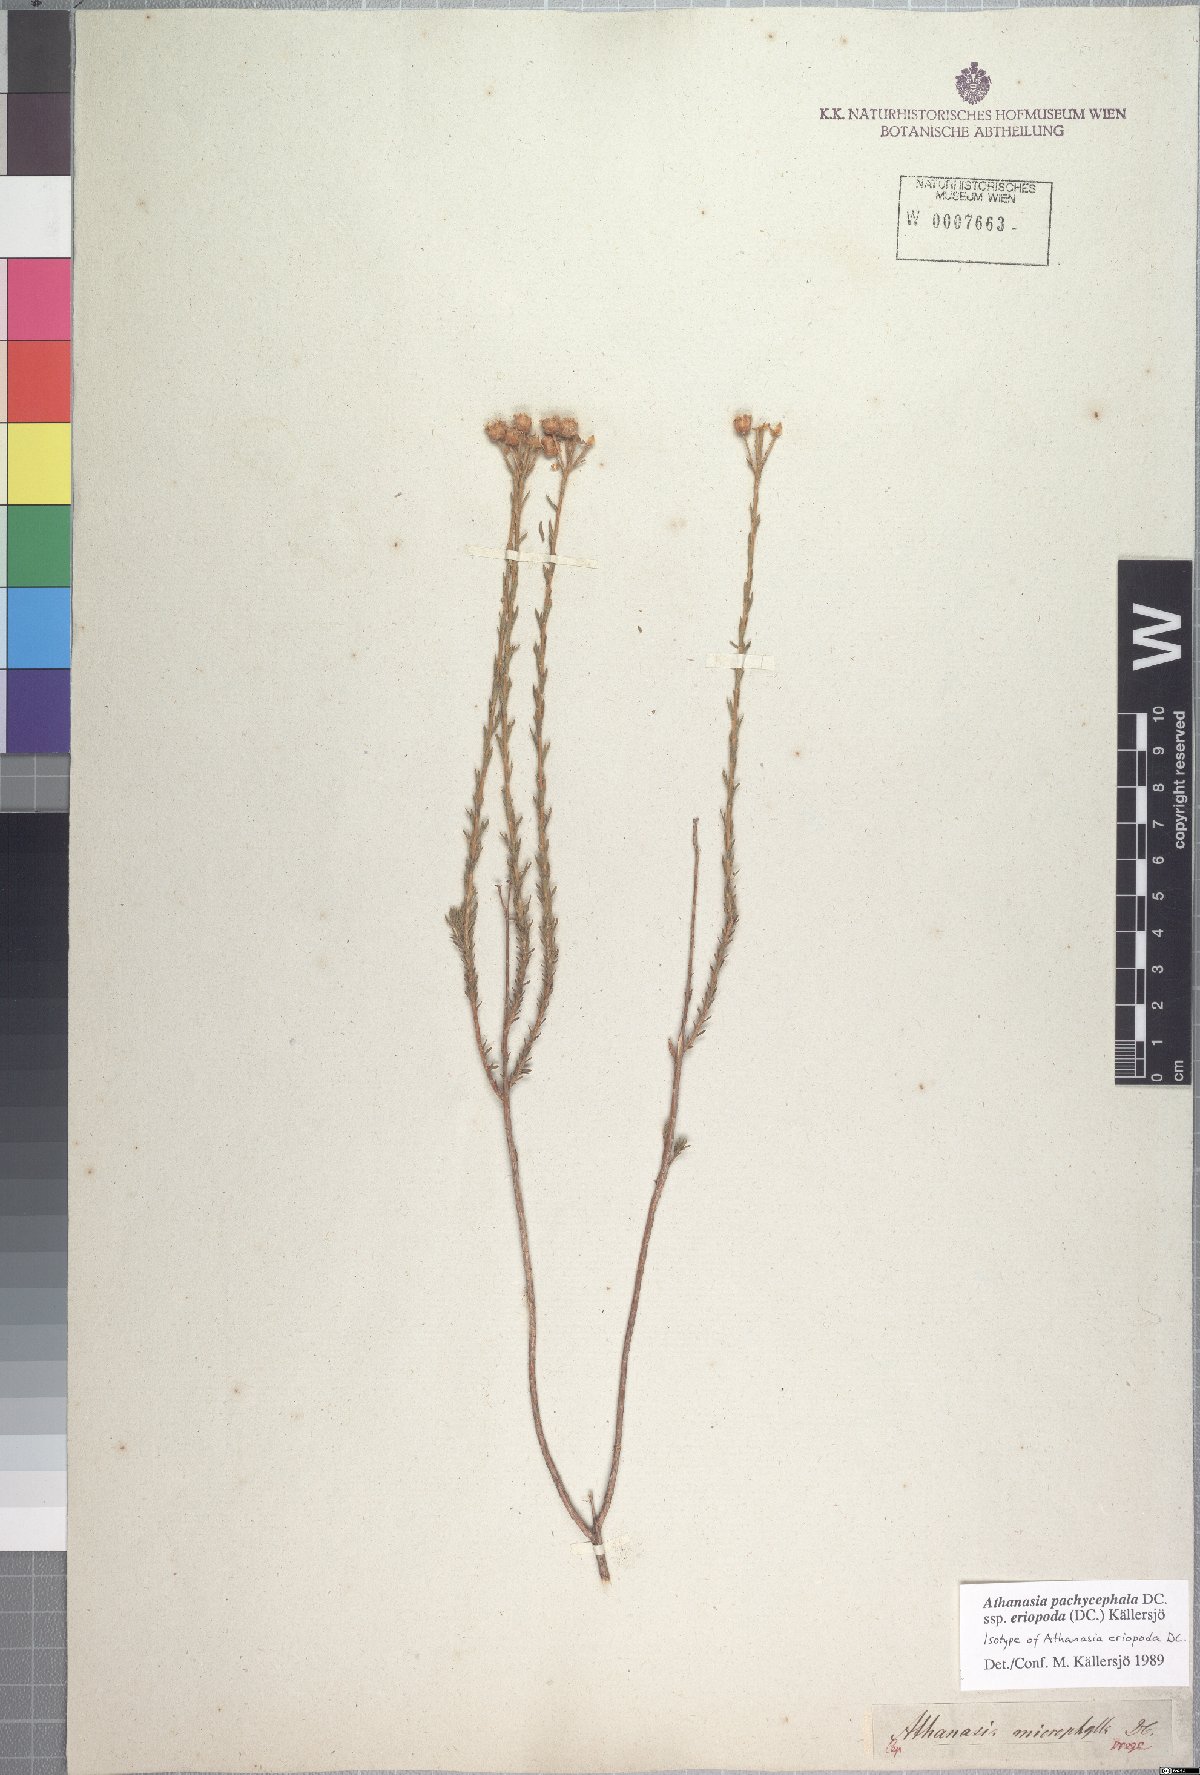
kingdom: Plantae
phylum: Tracheophyta
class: Magnoliopsida
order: Asterales
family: Asteraceae
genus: Athanasia
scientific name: Athanasia pachycephala
